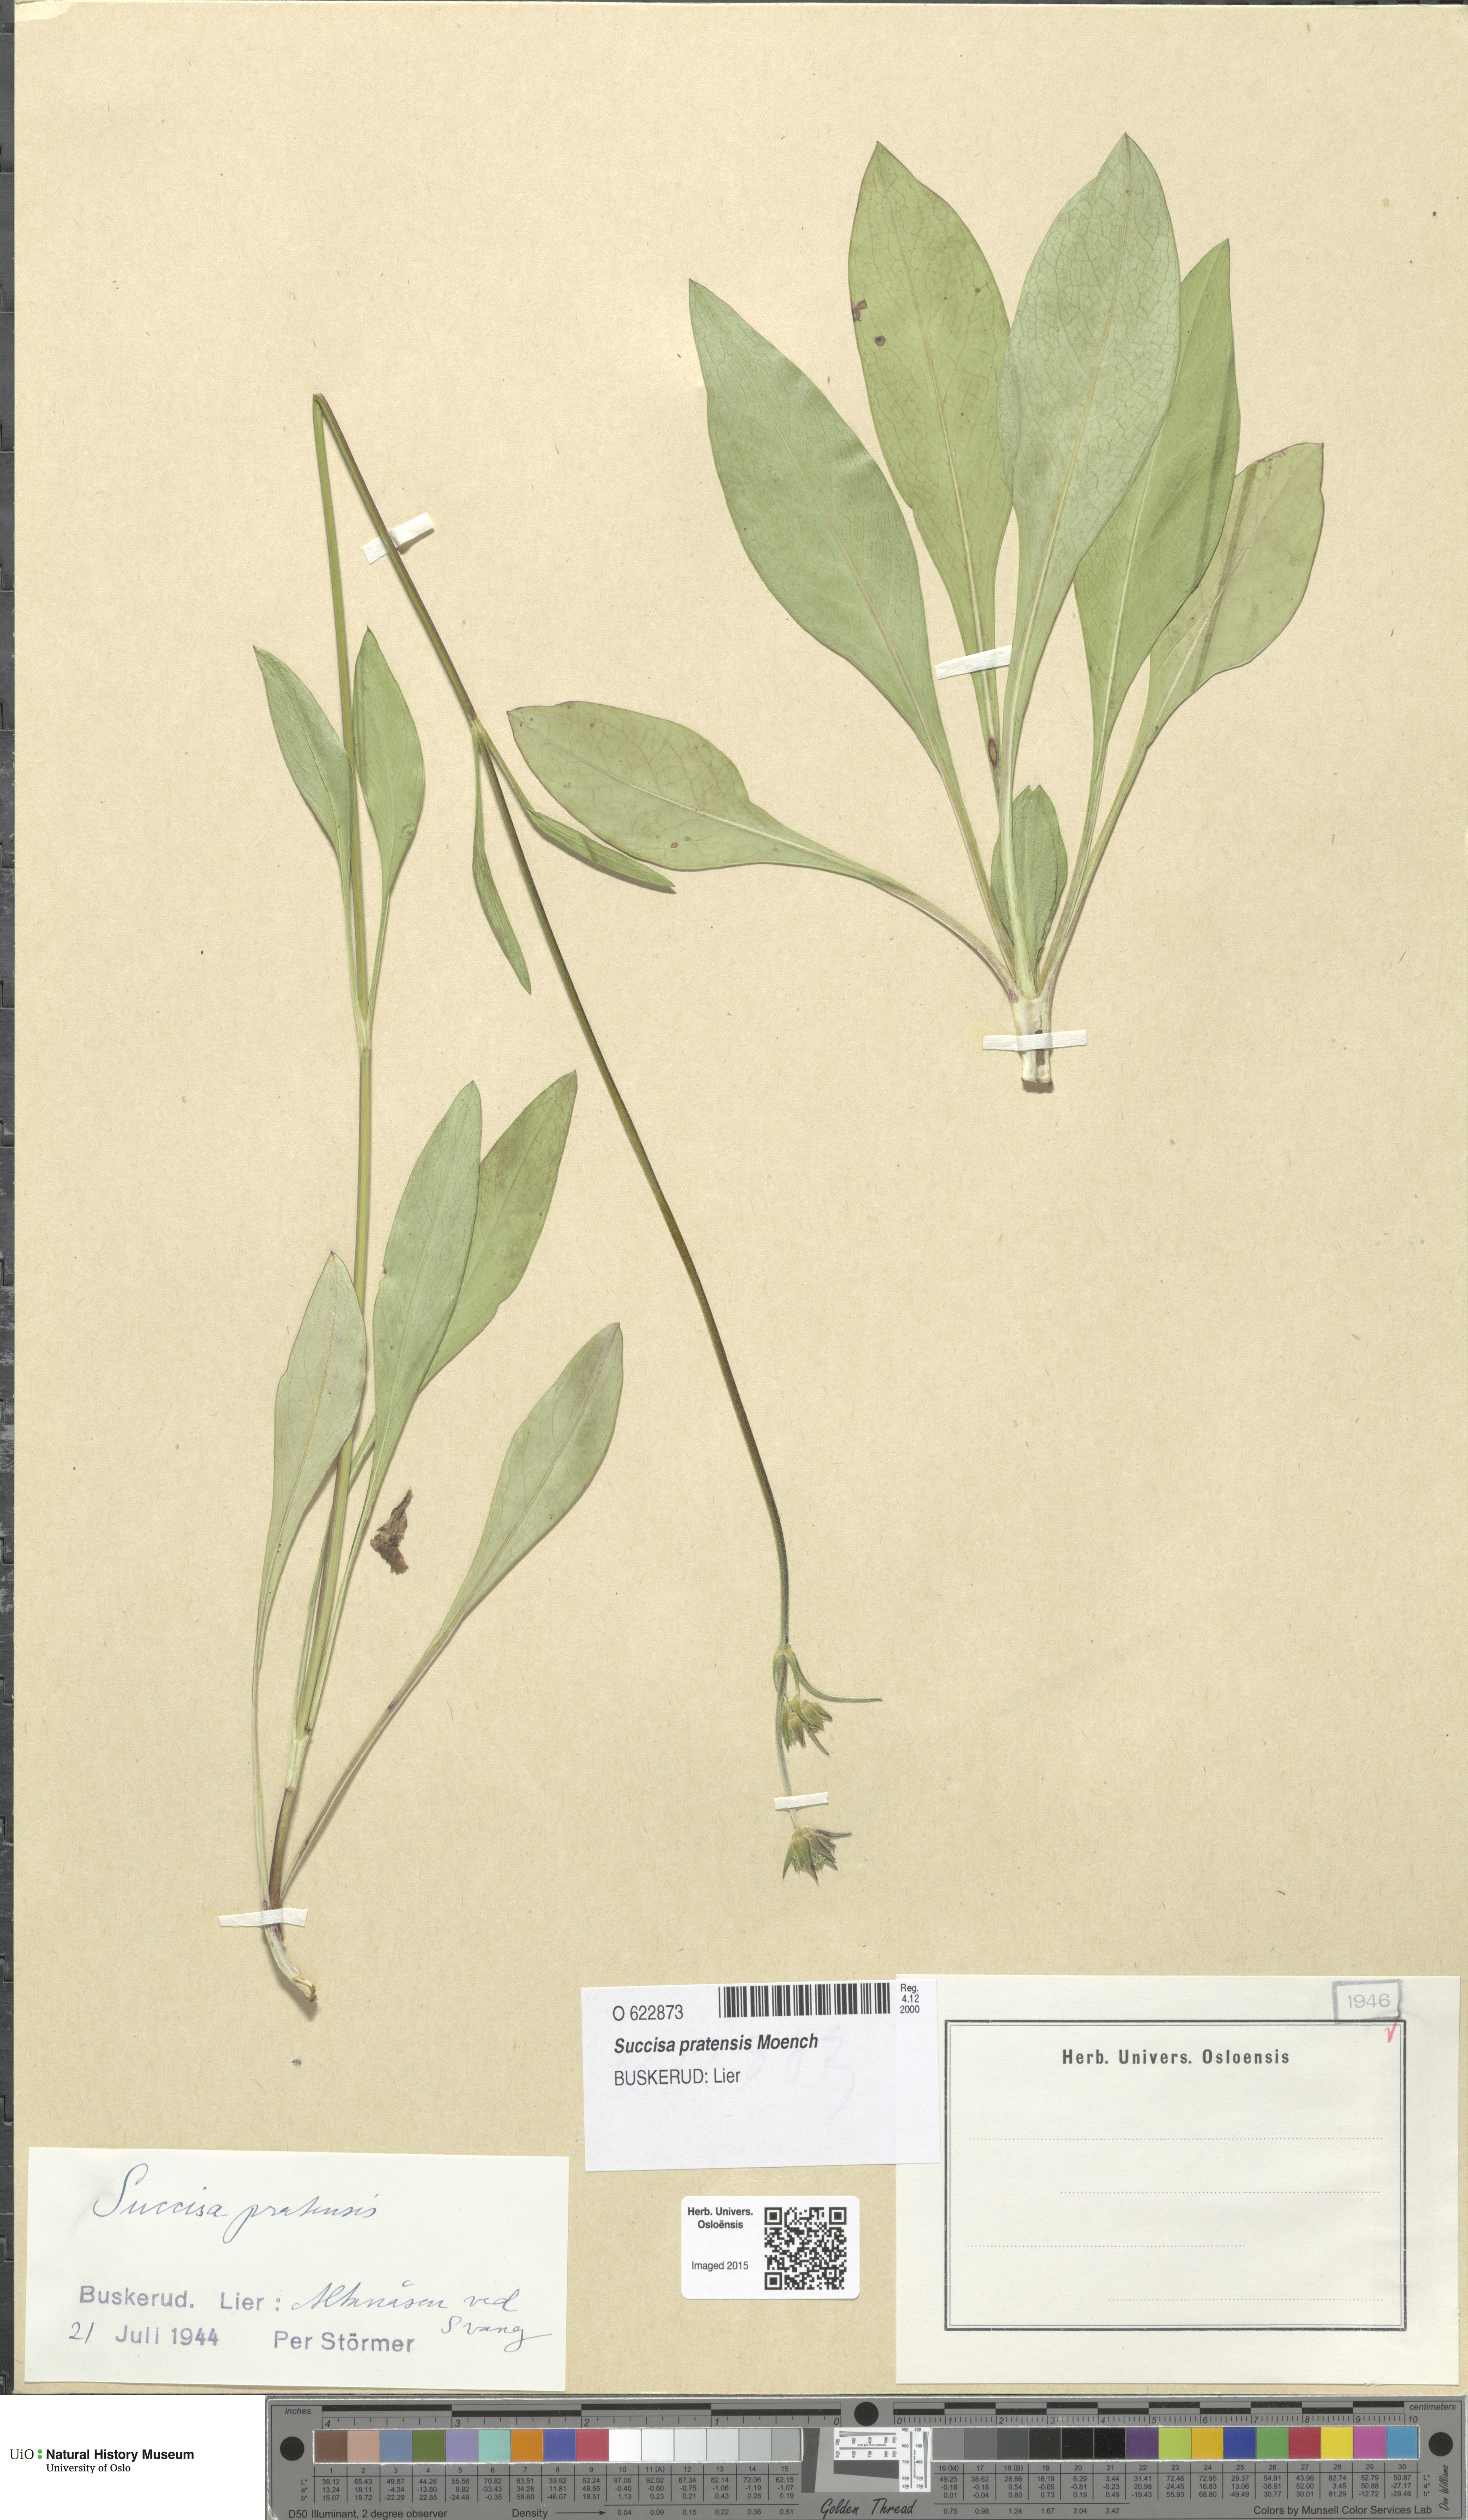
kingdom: Plantae
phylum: Tracheophyta
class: Magnoliopsida
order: Dipsacales
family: Caprifoliaceae
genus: Succisa
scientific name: Succisa pratensis
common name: Devil's-bit
